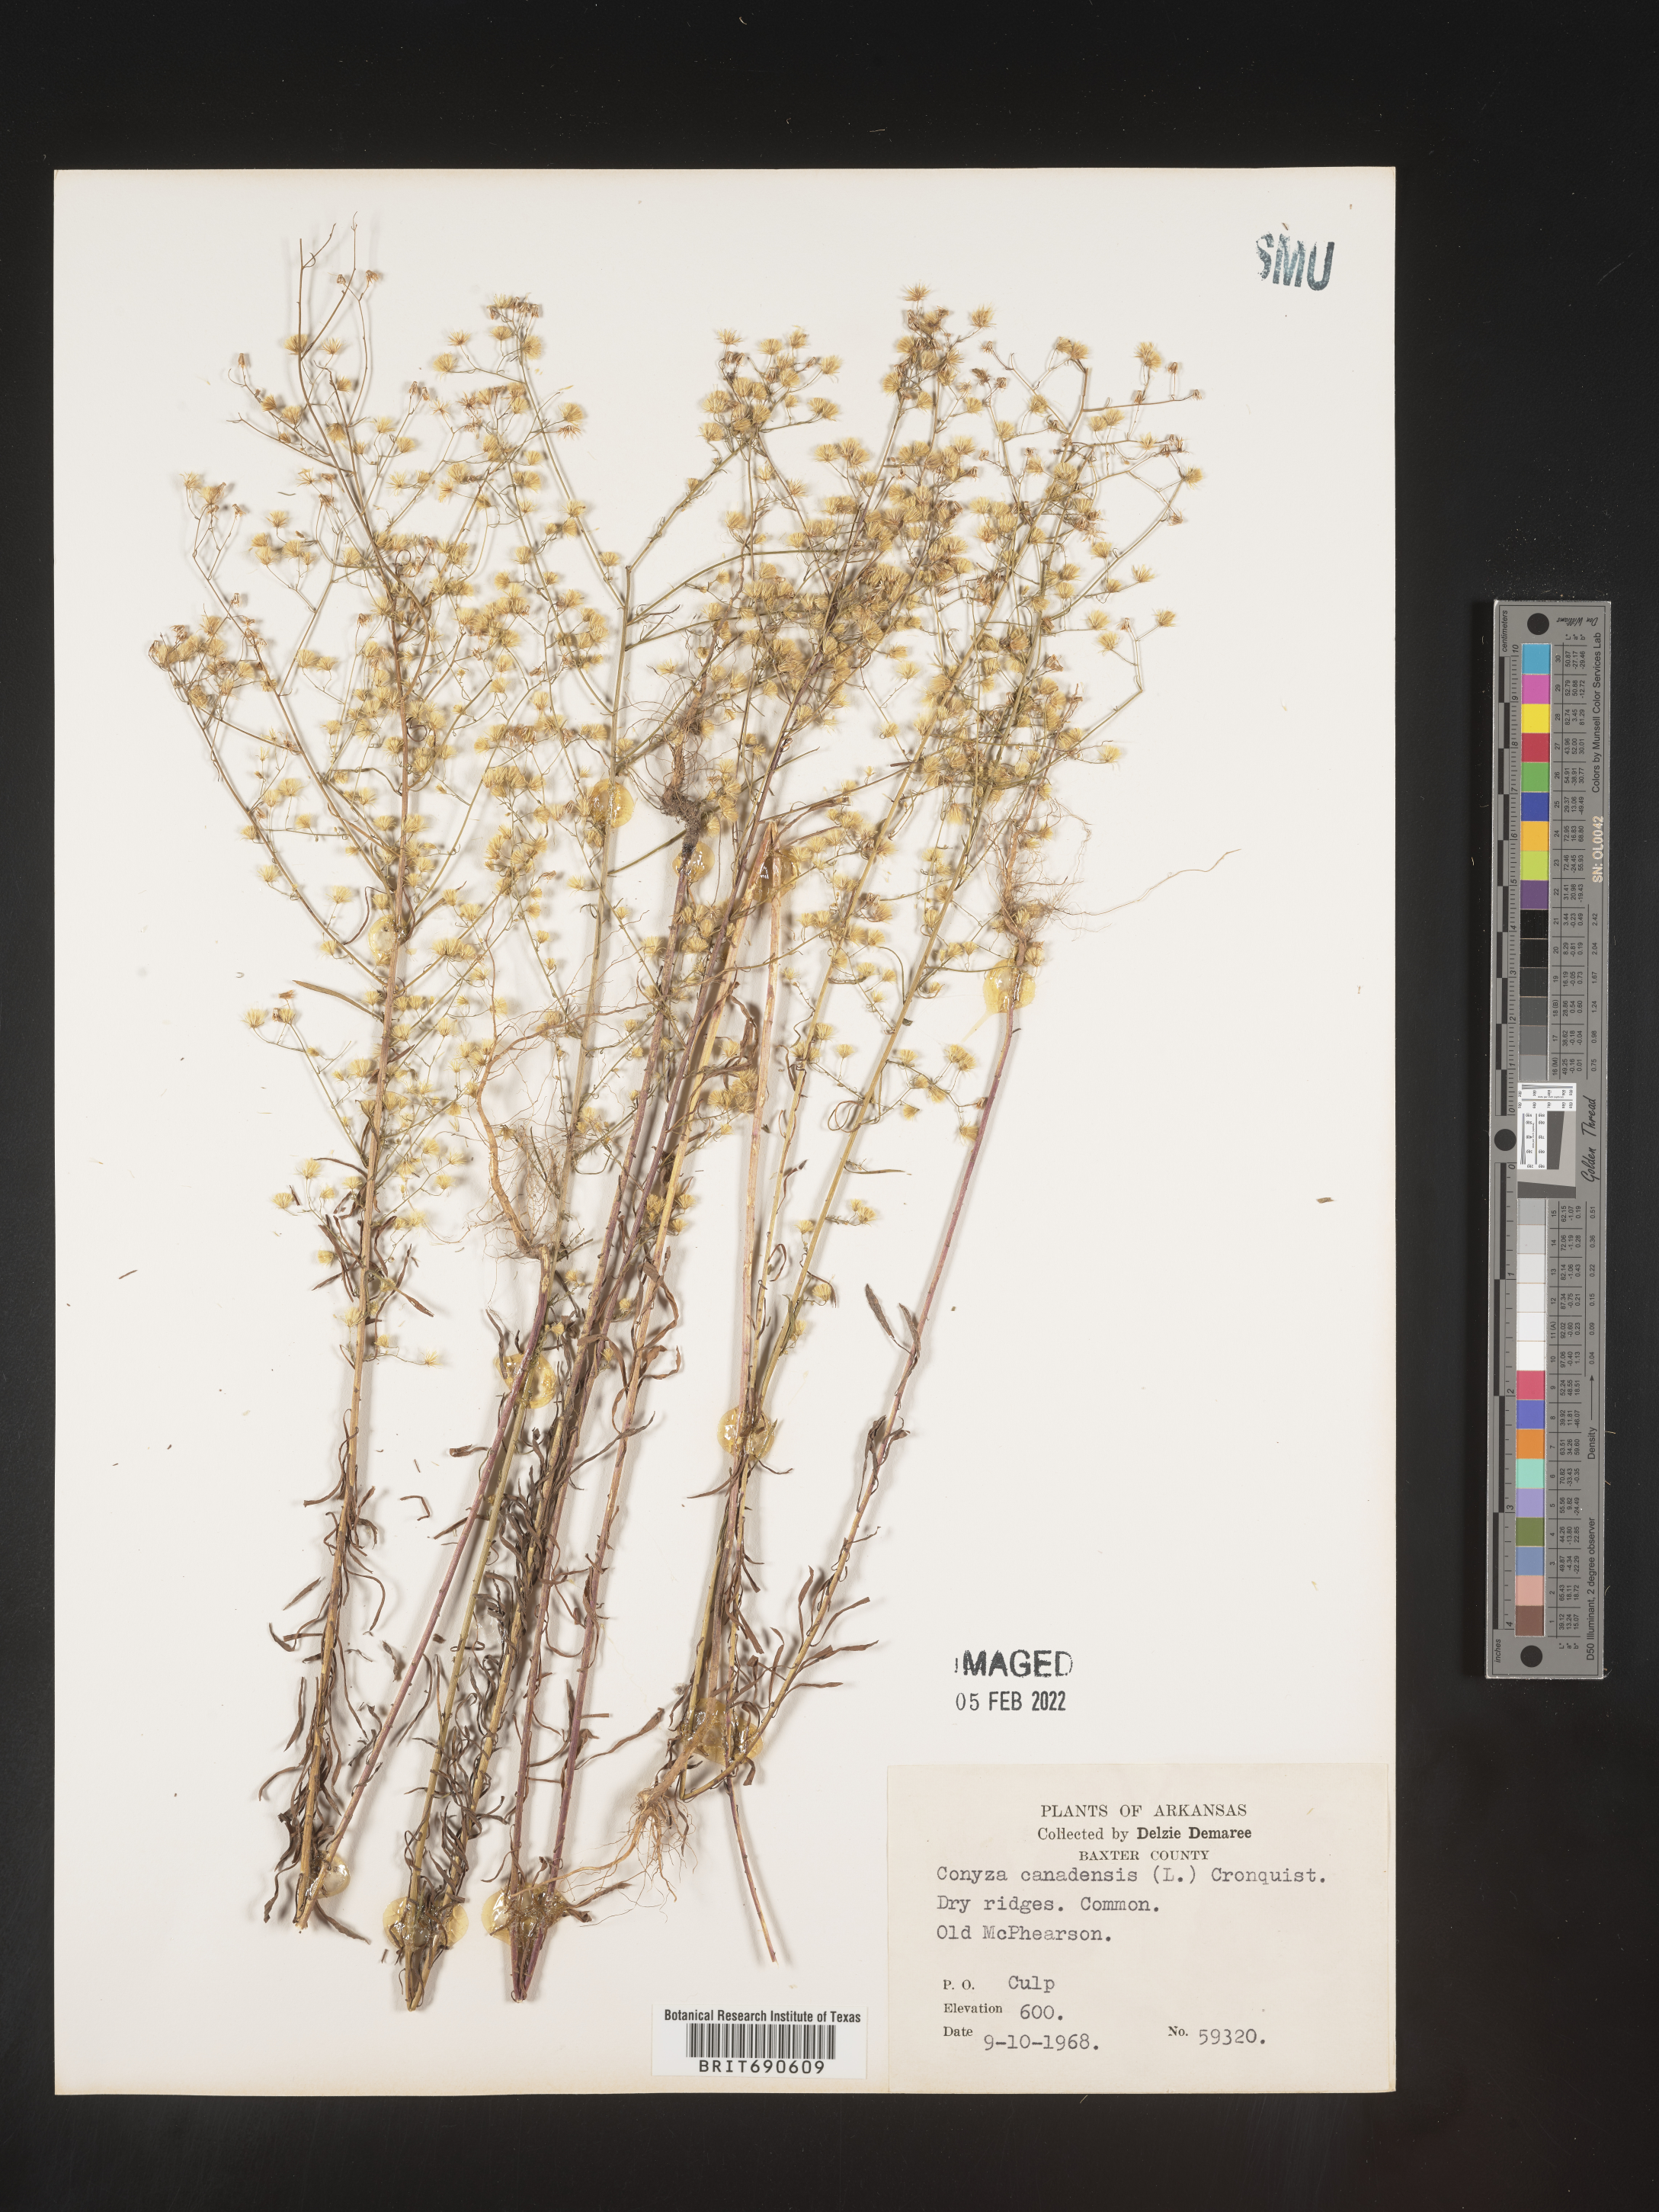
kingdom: Plantae
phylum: Tracheophyta
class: Magnoliopsida
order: Asterales
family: Asteraceae
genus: Erigeron
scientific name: Erigeron canadensis
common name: Canadian fleabane
